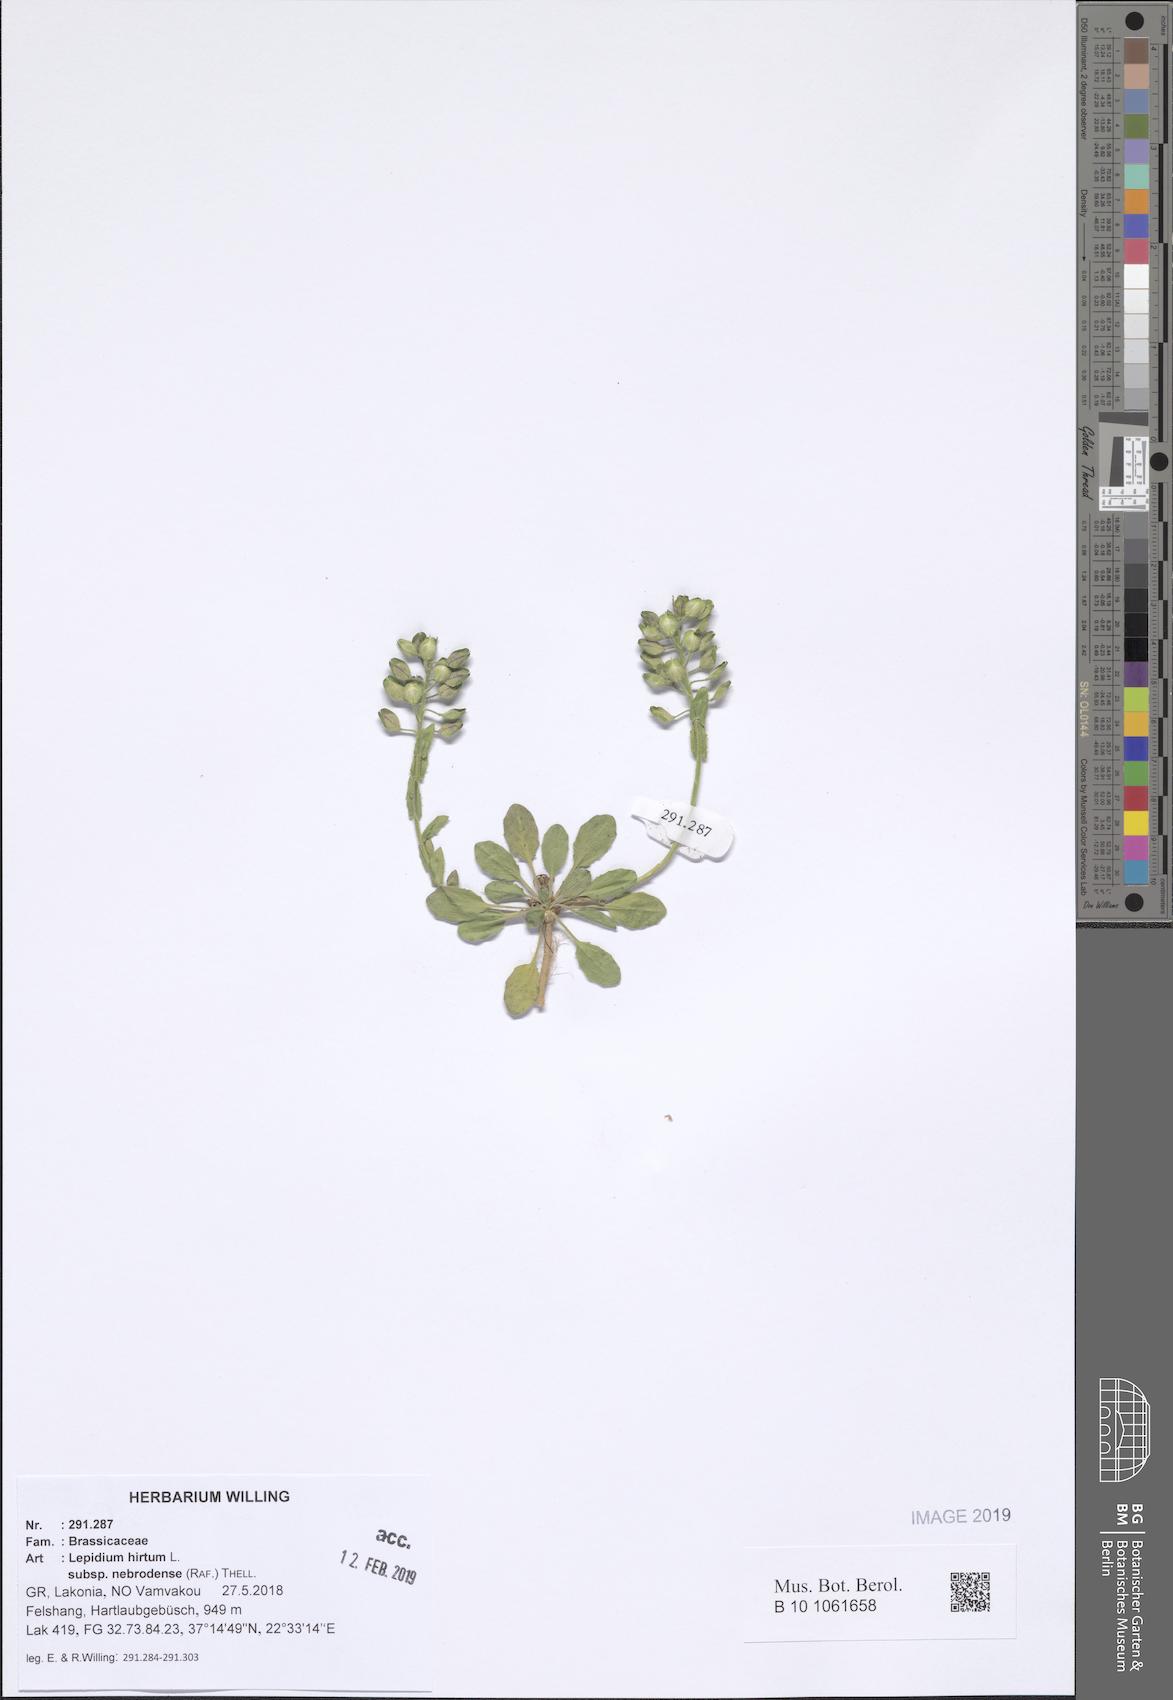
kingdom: Plantae
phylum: Tracheophyta
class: Magnoliopsida
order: Brassicales
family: Brassicaceae
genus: Lepidium
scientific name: Lepidium hirtum
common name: Mediterranean pepperweed
